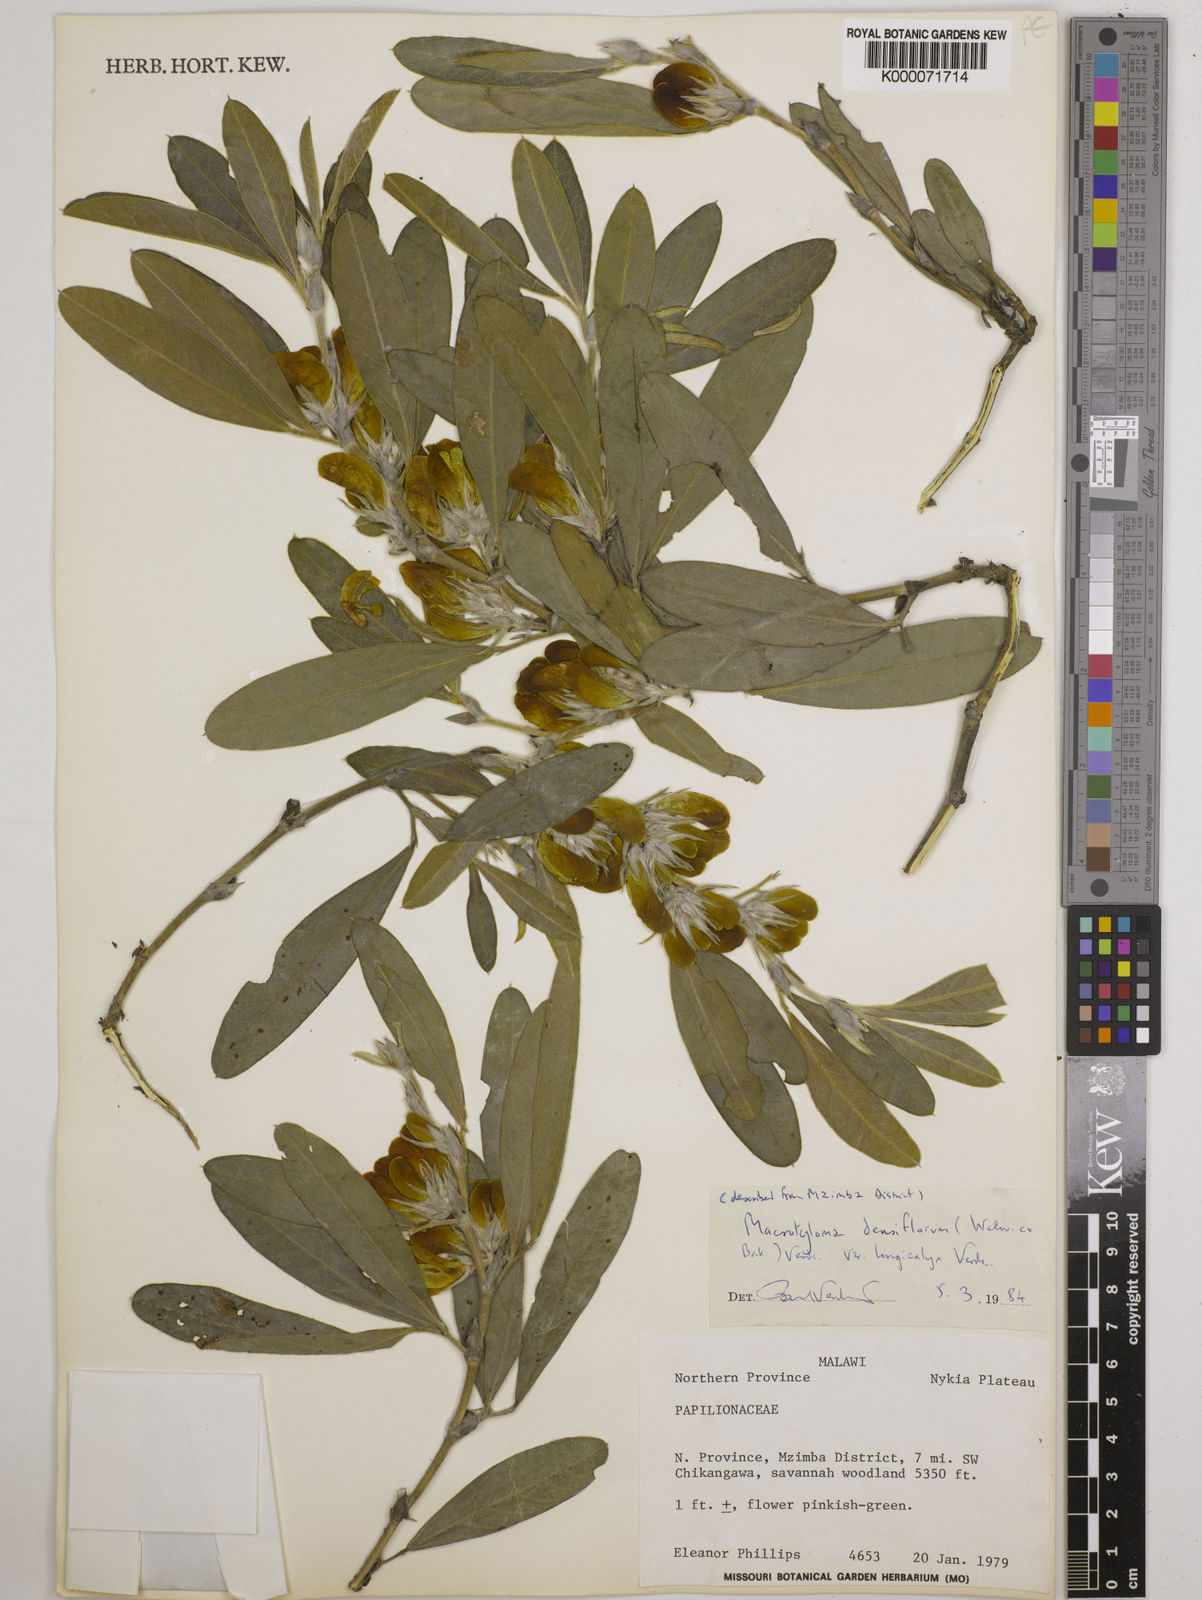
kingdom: Plantae
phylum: Tracheophyta
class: Magnoliopsida
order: Fabales
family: Fabaceae
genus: Macrotyloma
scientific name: Macrotyloma densiflorum
